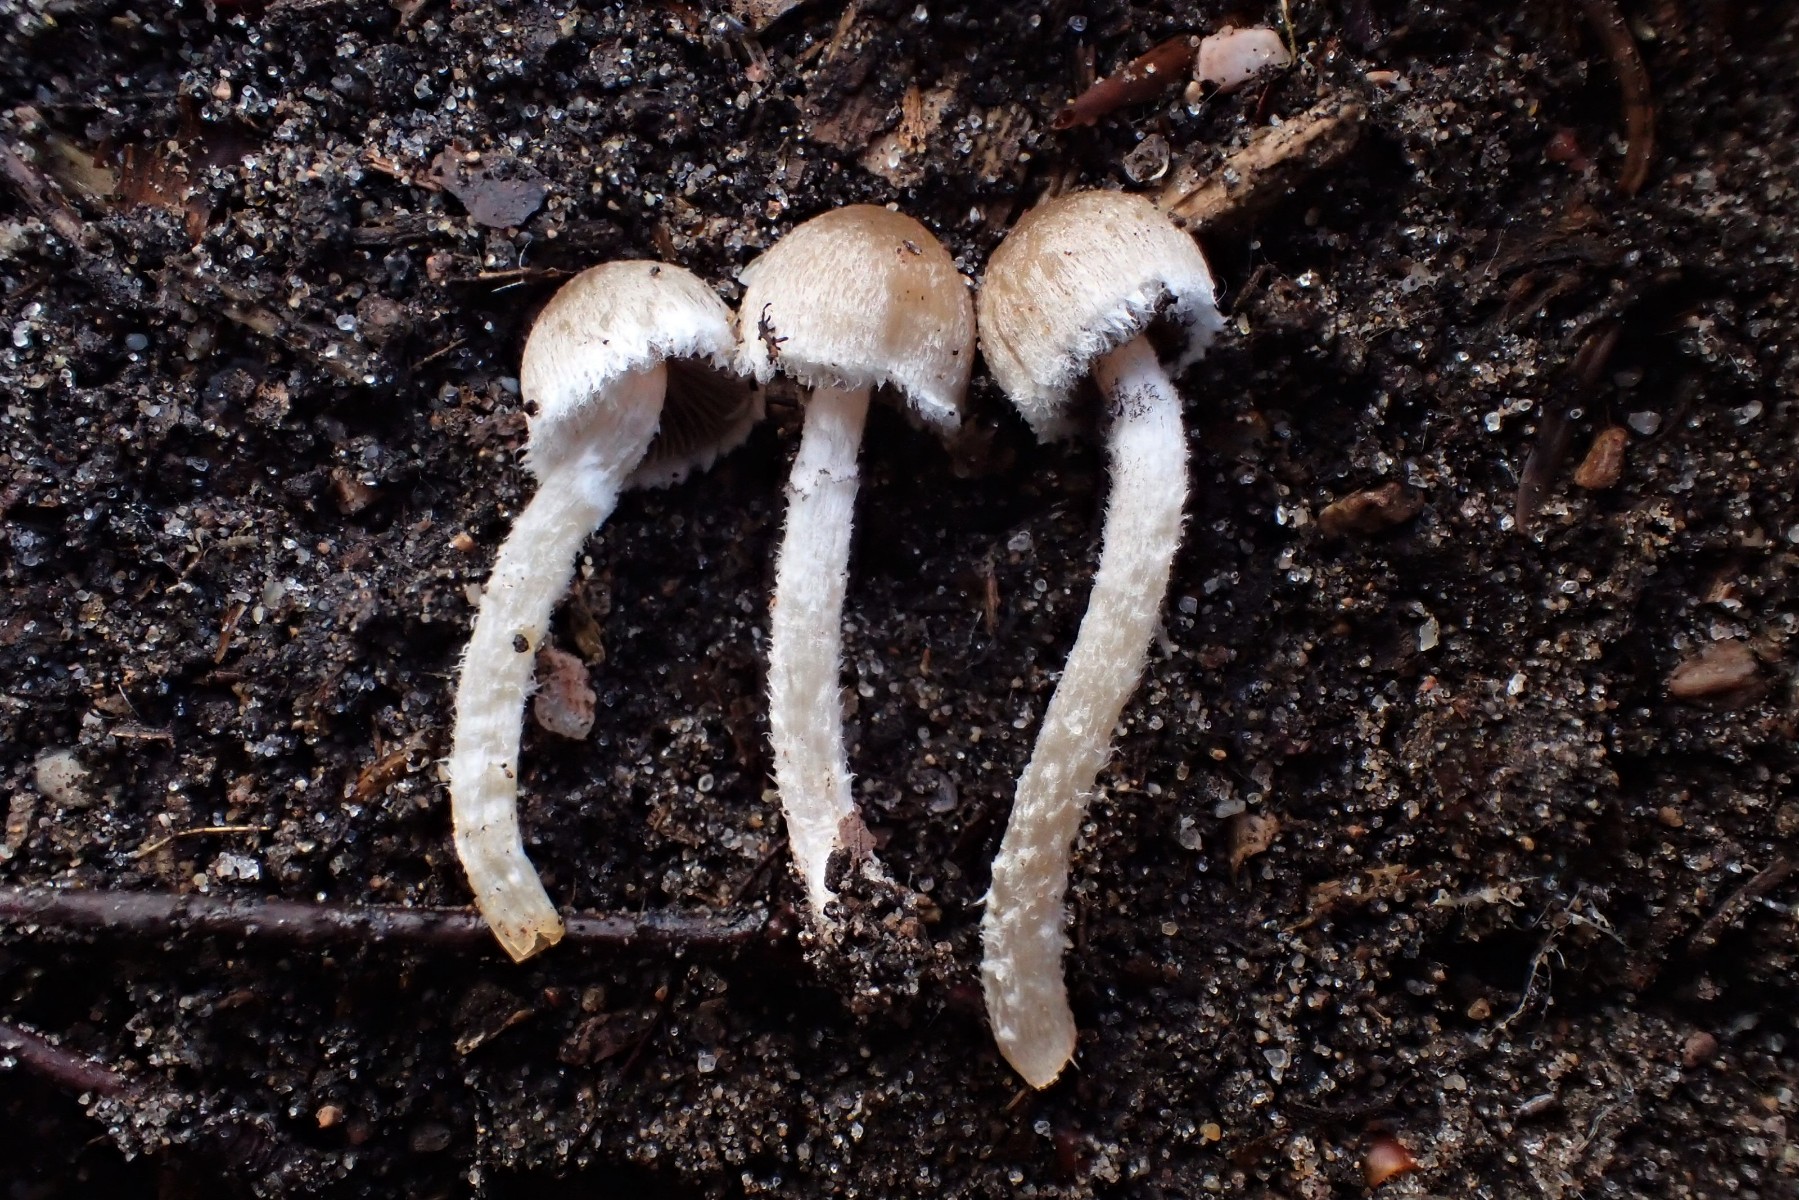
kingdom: Fungi
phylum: Basidiomycota
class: Agaricomycetes
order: Agaricales
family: Psathyrellaceae
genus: Psathyrella
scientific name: Psathyrella
